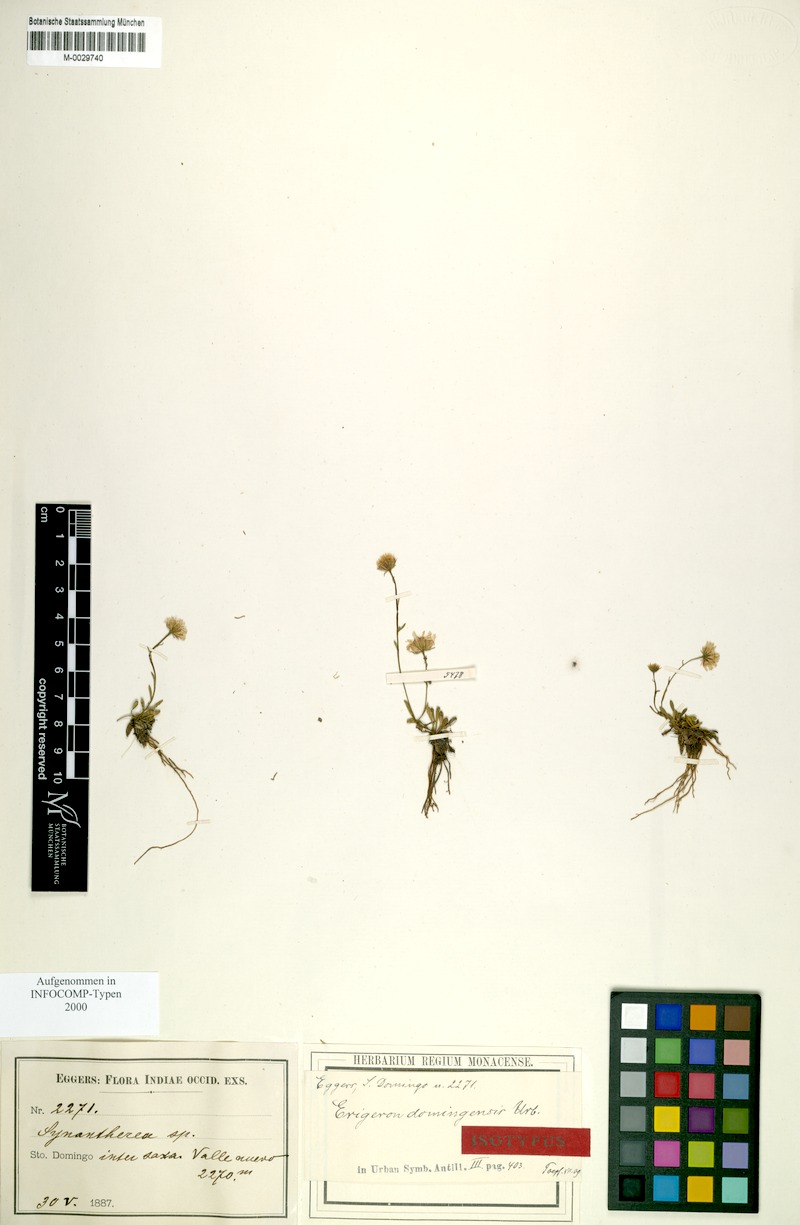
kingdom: Plantae
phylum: Tracheophyta
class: Magnoliopsida
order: Asterales
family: Asteraceae
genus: Erigeron
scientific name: Erigeron domingensis
